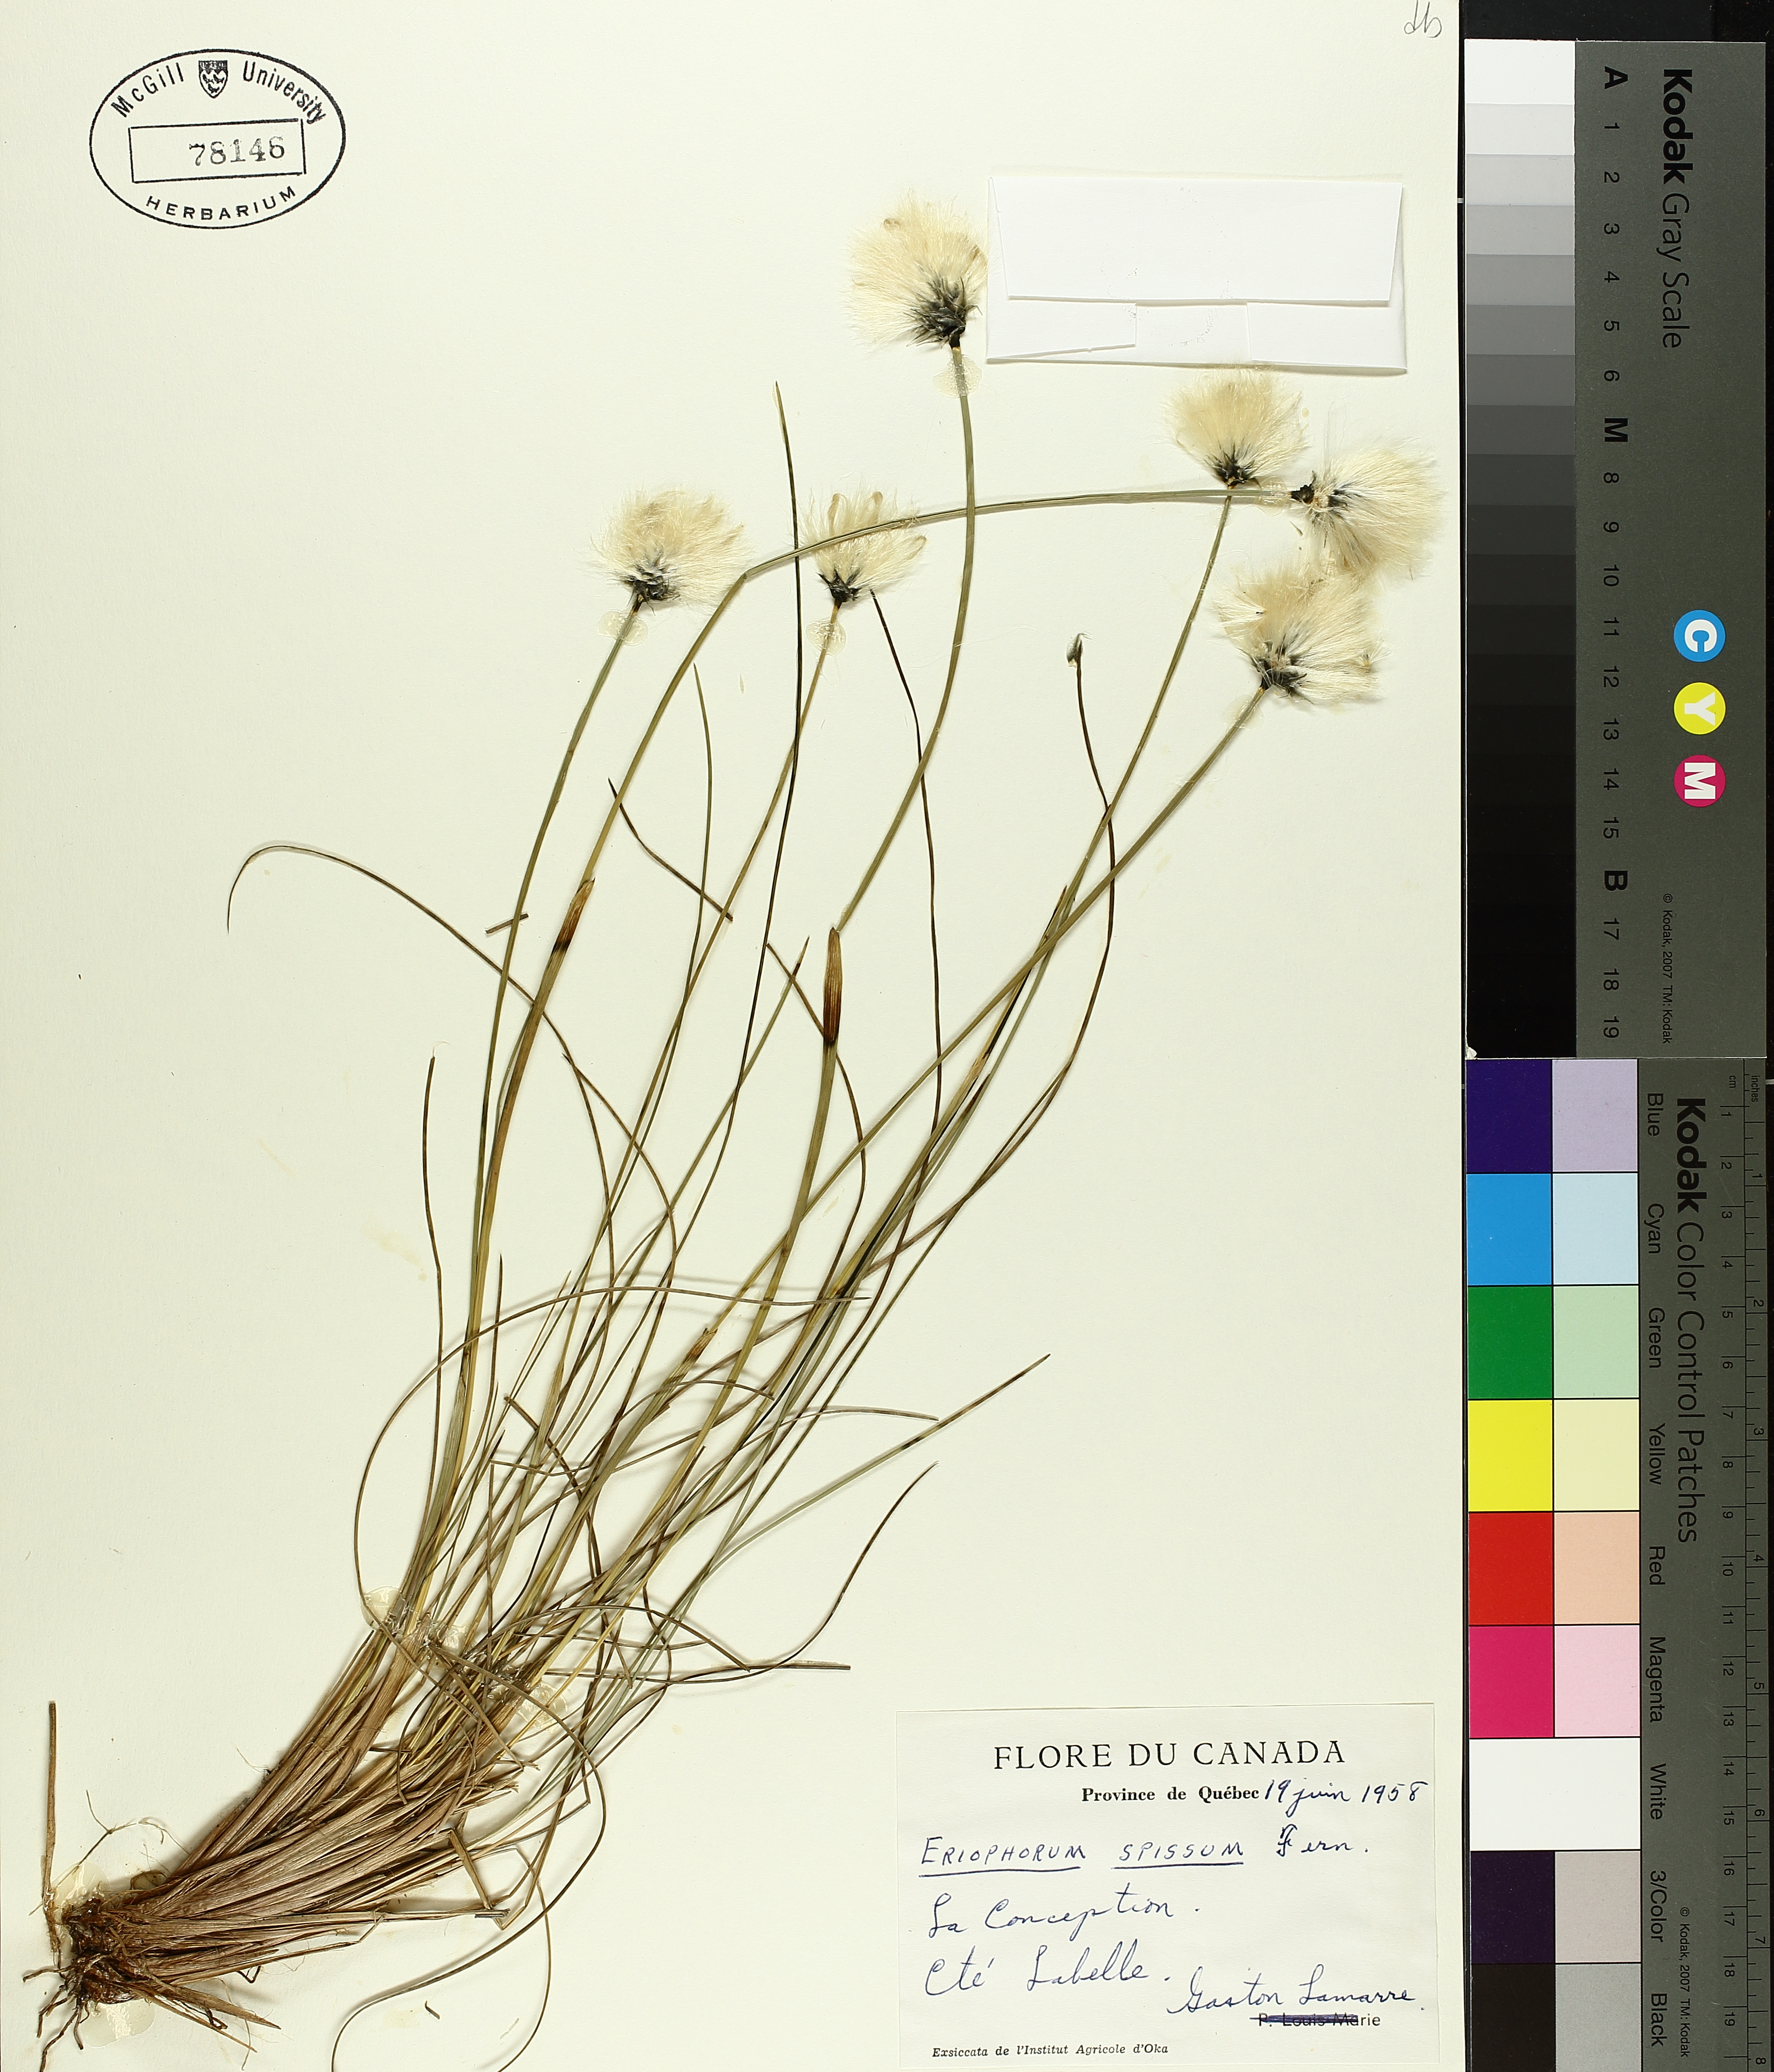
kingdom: Plantae
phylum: Tracheophyta
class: Liliopsida
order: Poales
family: Cyperaceae
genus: Eriophorum
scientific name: Eriophorum vaginatum
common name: Hare's-tail cottongrass
